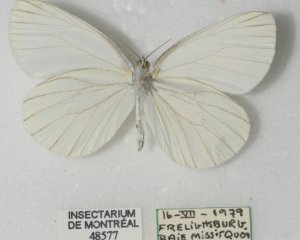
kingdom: Animalia
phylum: Arthropoda
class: Insecta
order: Lepidoptera
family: Pieridae
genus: Pieris
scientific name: Pieris oleracea
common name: Mustard White
